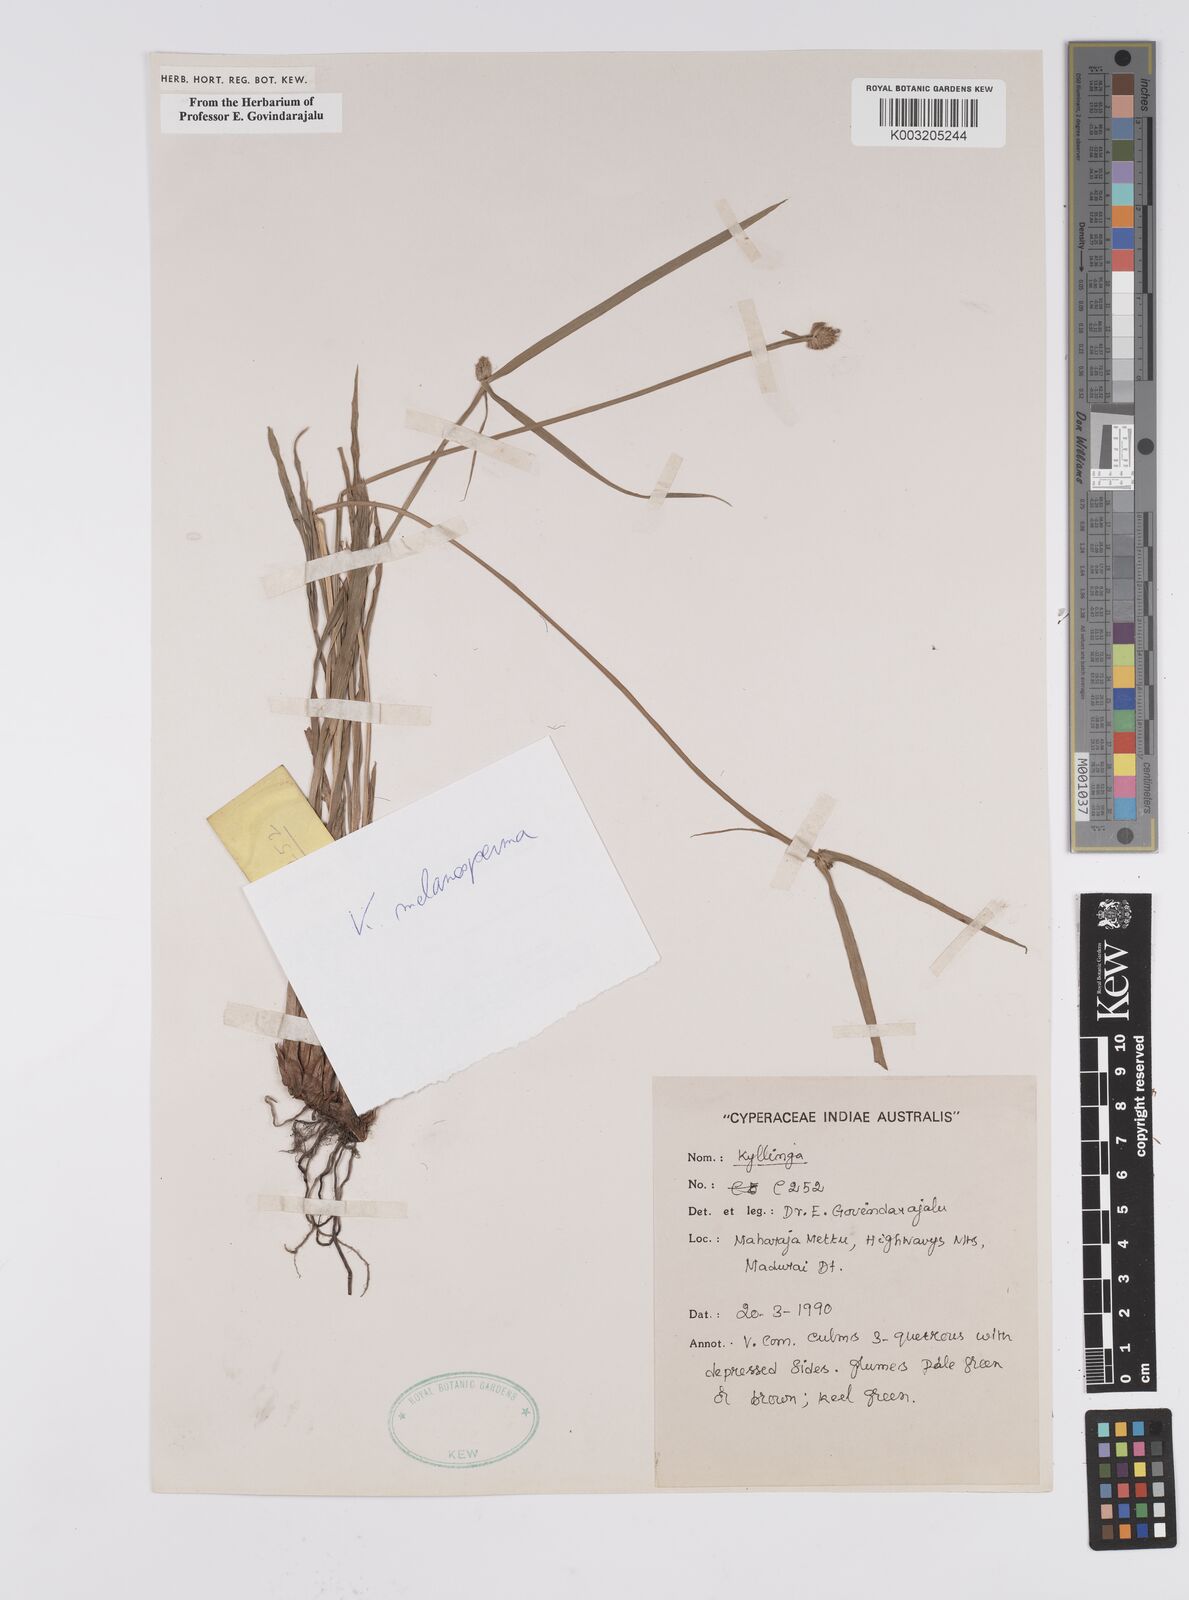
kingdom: Plantae
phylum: Tracheophyta
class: Liliopsida
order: Poales
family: Cyperaceae
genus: Cyperus
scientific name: Cyperus melanospermus
